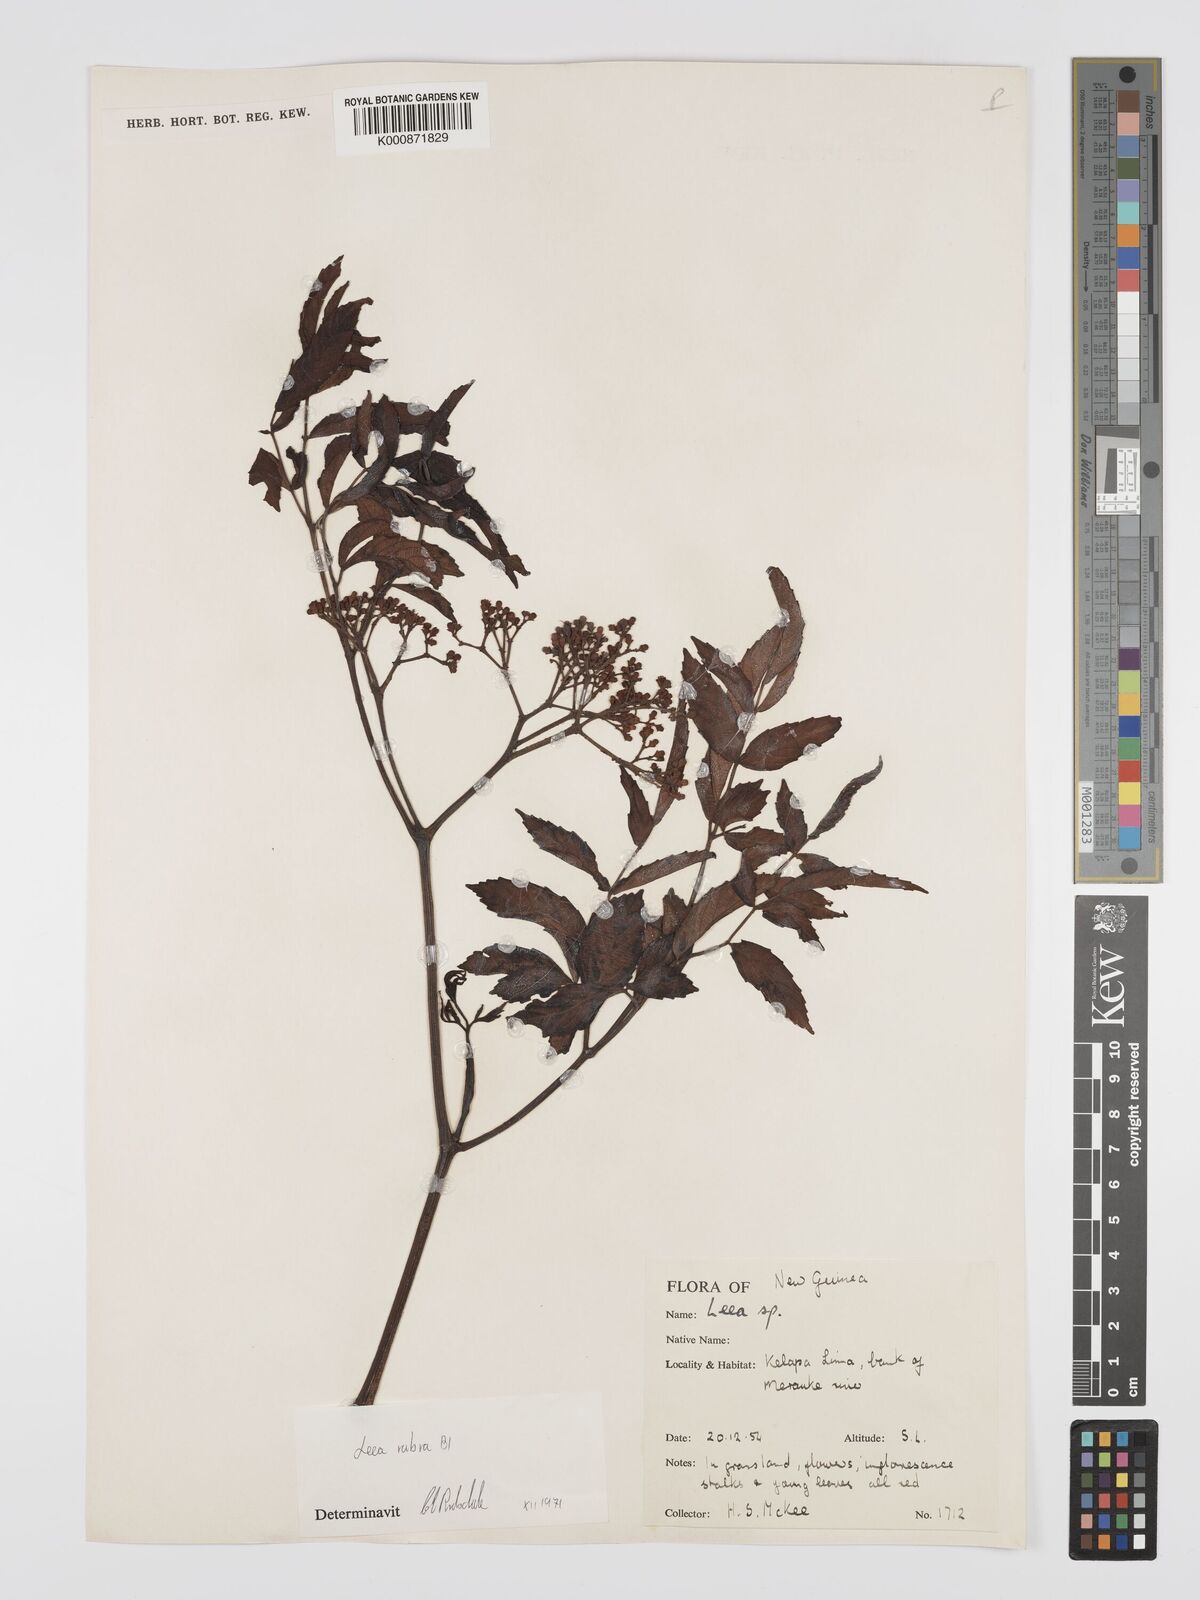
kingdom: Plantae
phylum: Tracheophyta
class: Magnoliopsida
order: Vitales
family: Vitaceae
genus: Leea
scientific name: Leea
